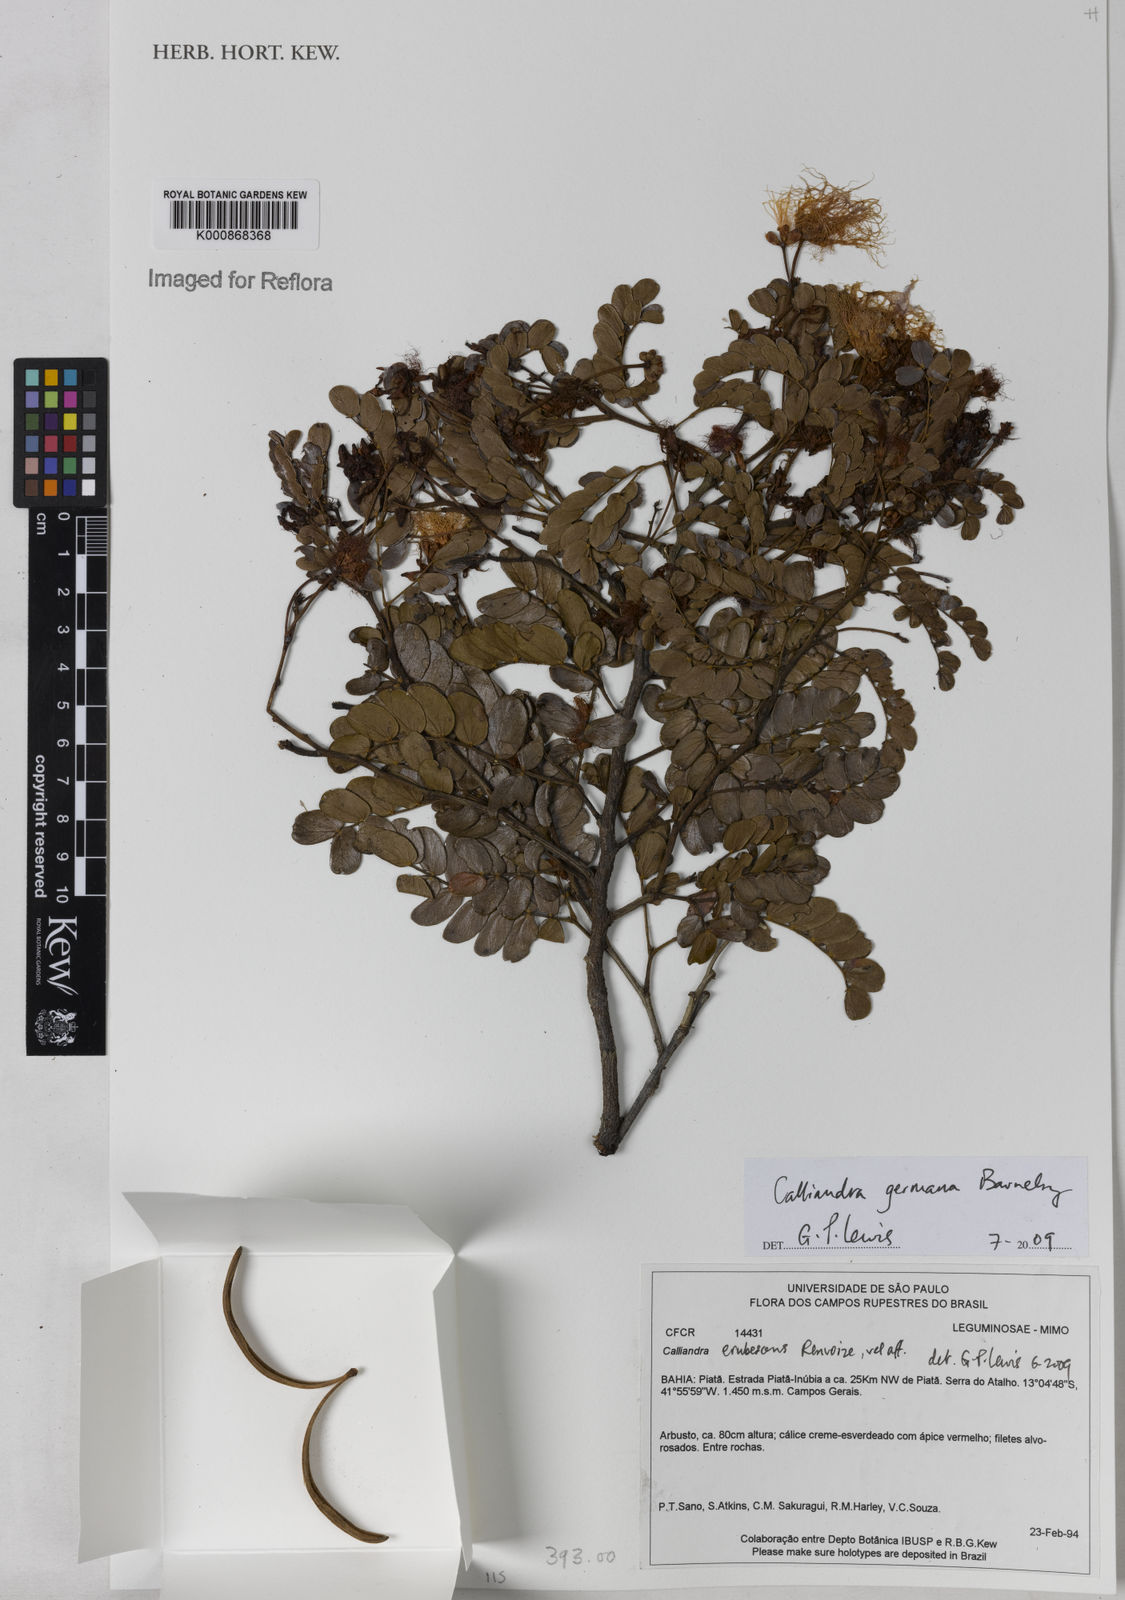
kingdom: Plantae
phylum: Tracheophyta
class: Magnoliopsida
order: Fabales
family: Fabaceae
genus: Calliandra
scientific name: Calliandra germana
